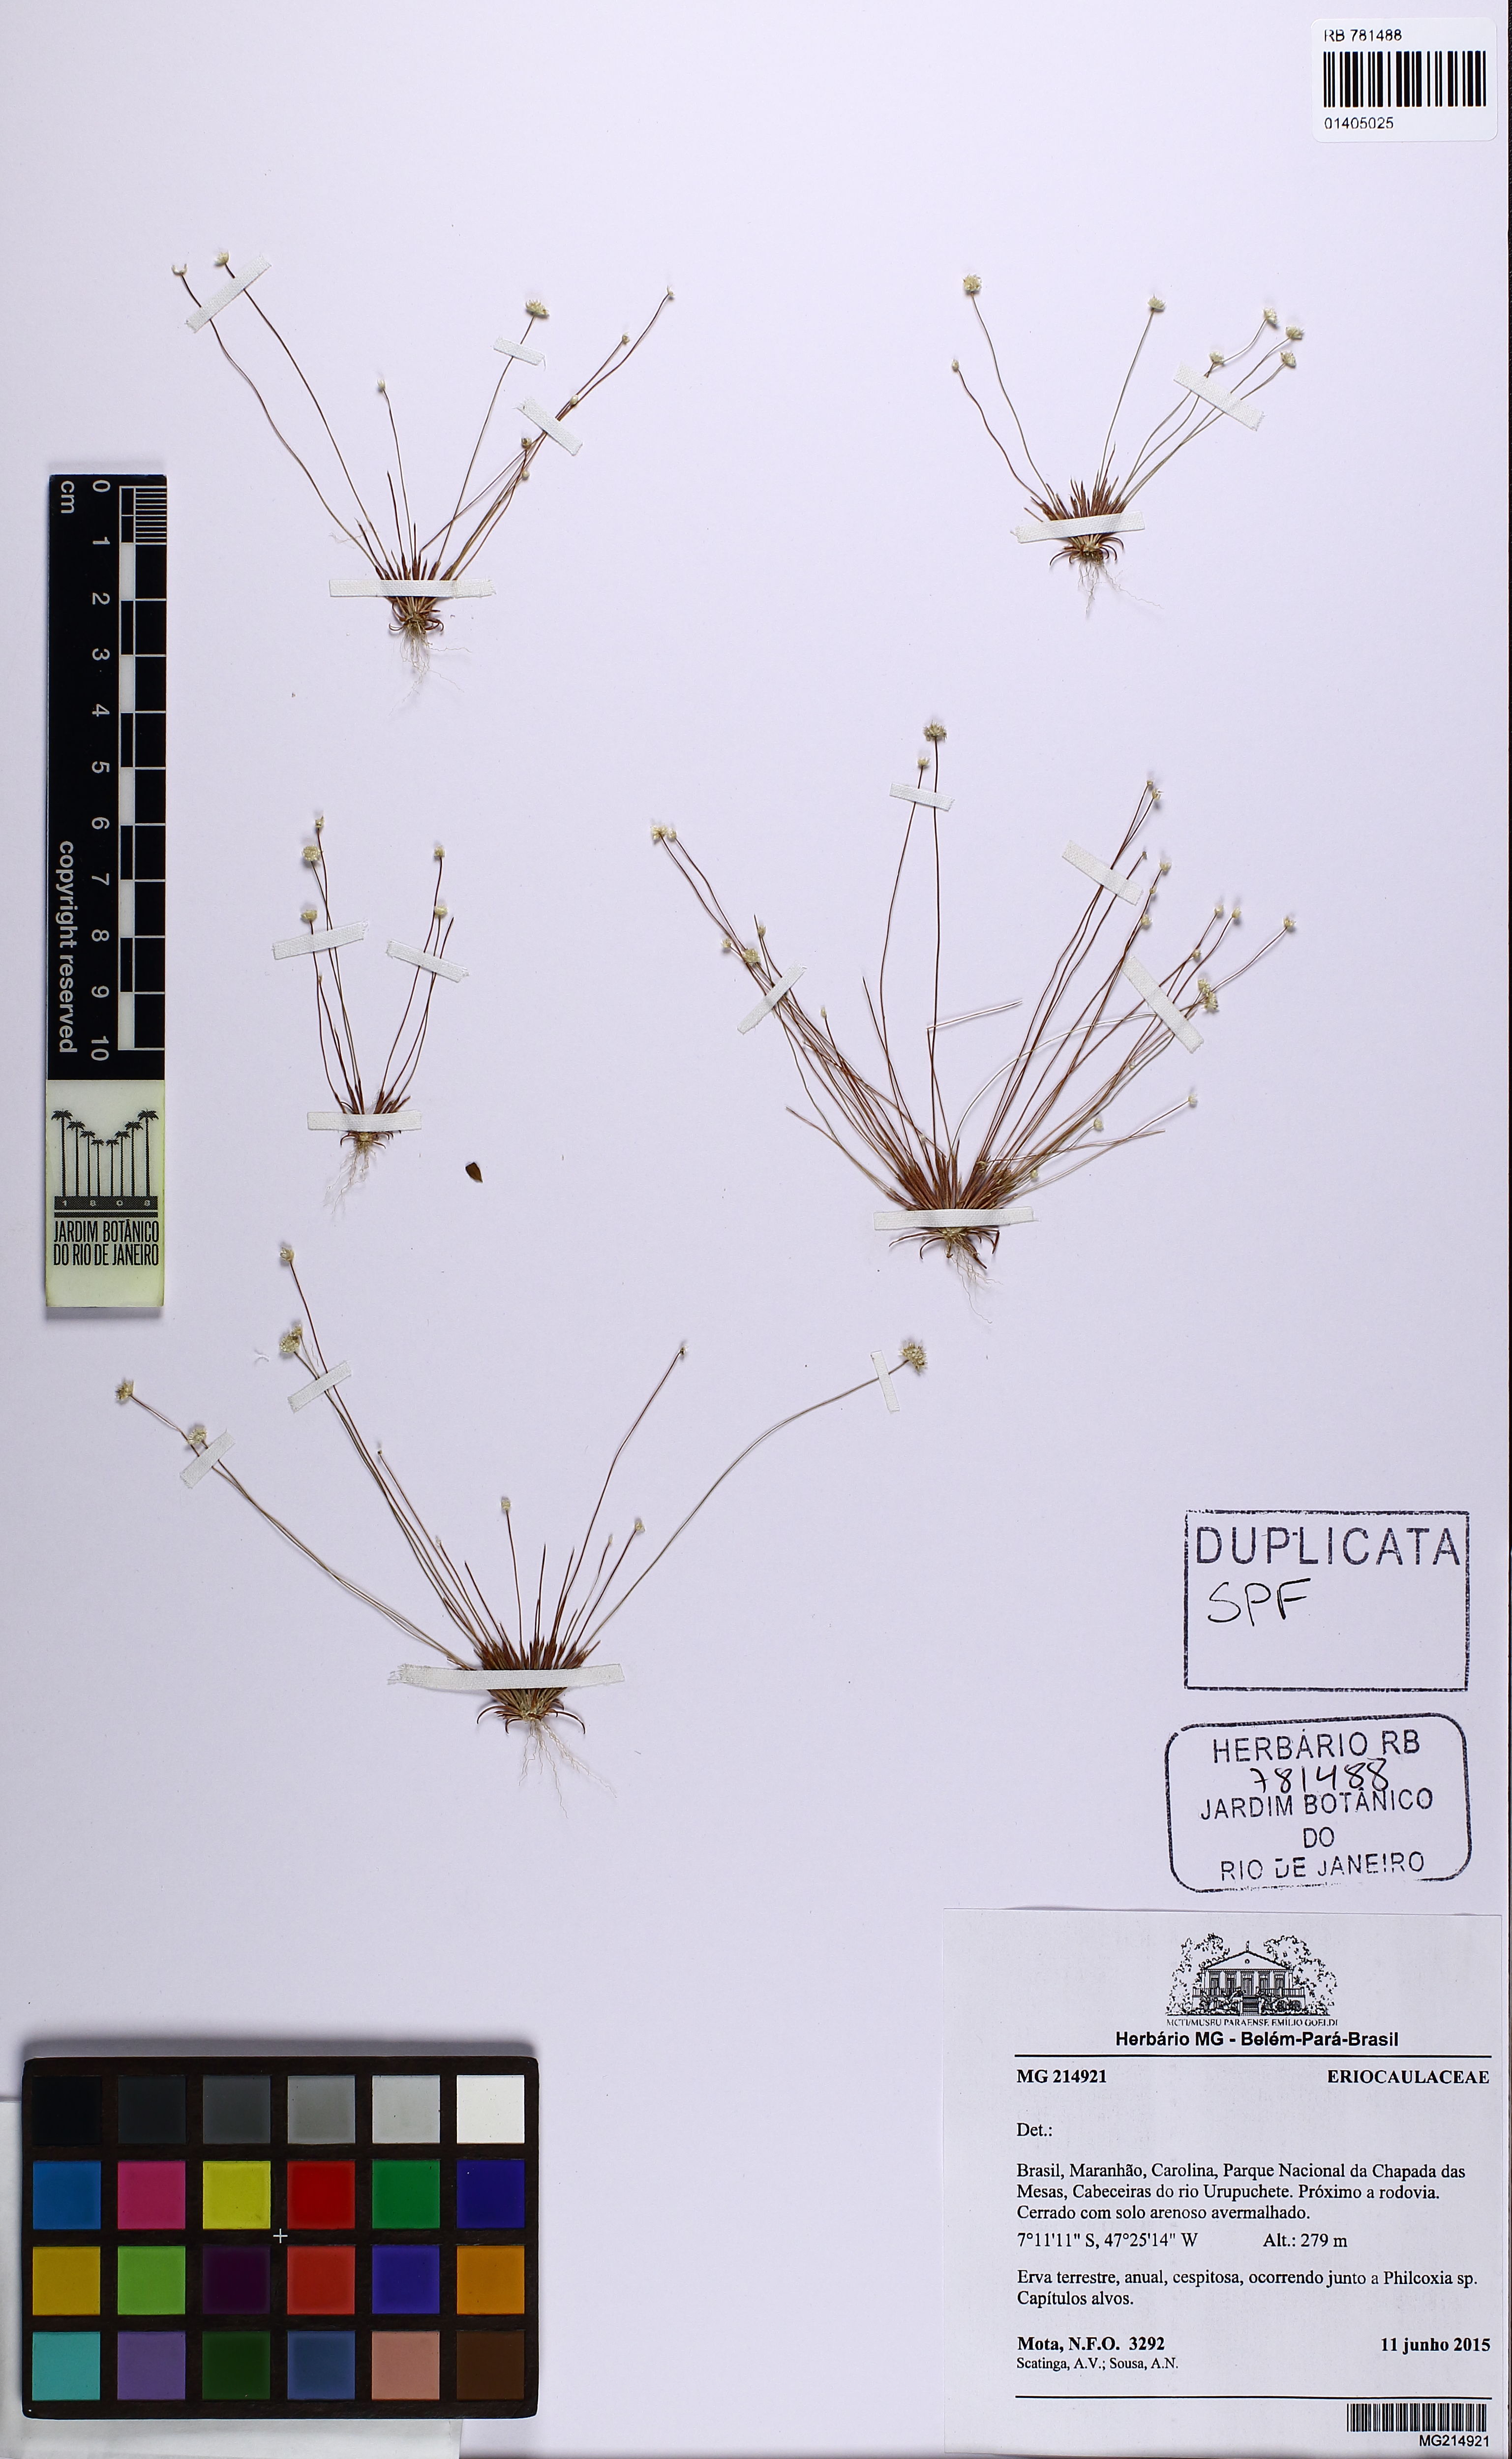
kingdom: Plantae
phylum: Tracheophyta
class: Liliopsida
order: Poales
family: Eriocaulaceae
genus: Syngonanthus
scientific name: Syngonanthus
